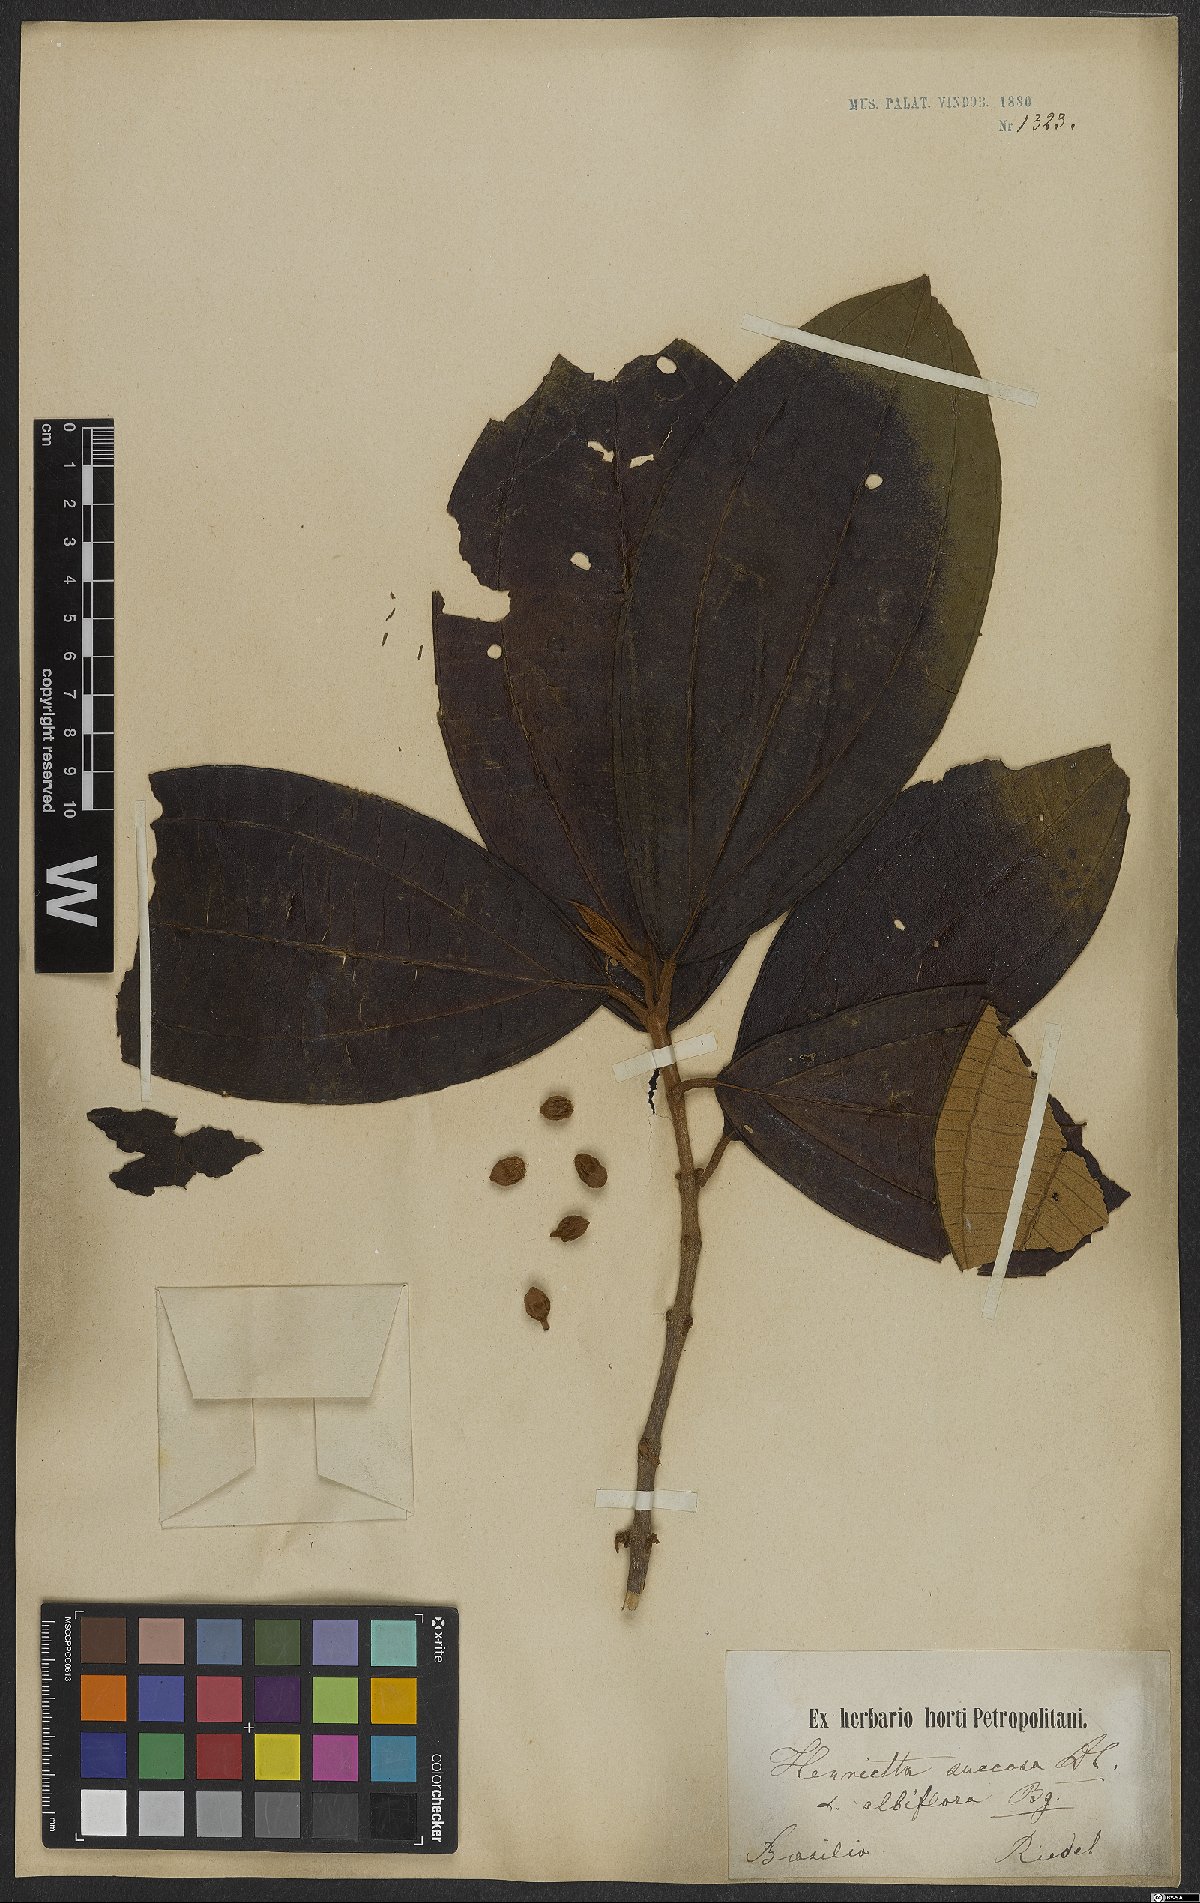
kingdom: Plantae
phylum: Tracheophyta
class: Magnoliopsida
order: Myrtales
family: Melastomataceae
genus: Henriettea
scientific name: Henriettea succosa
